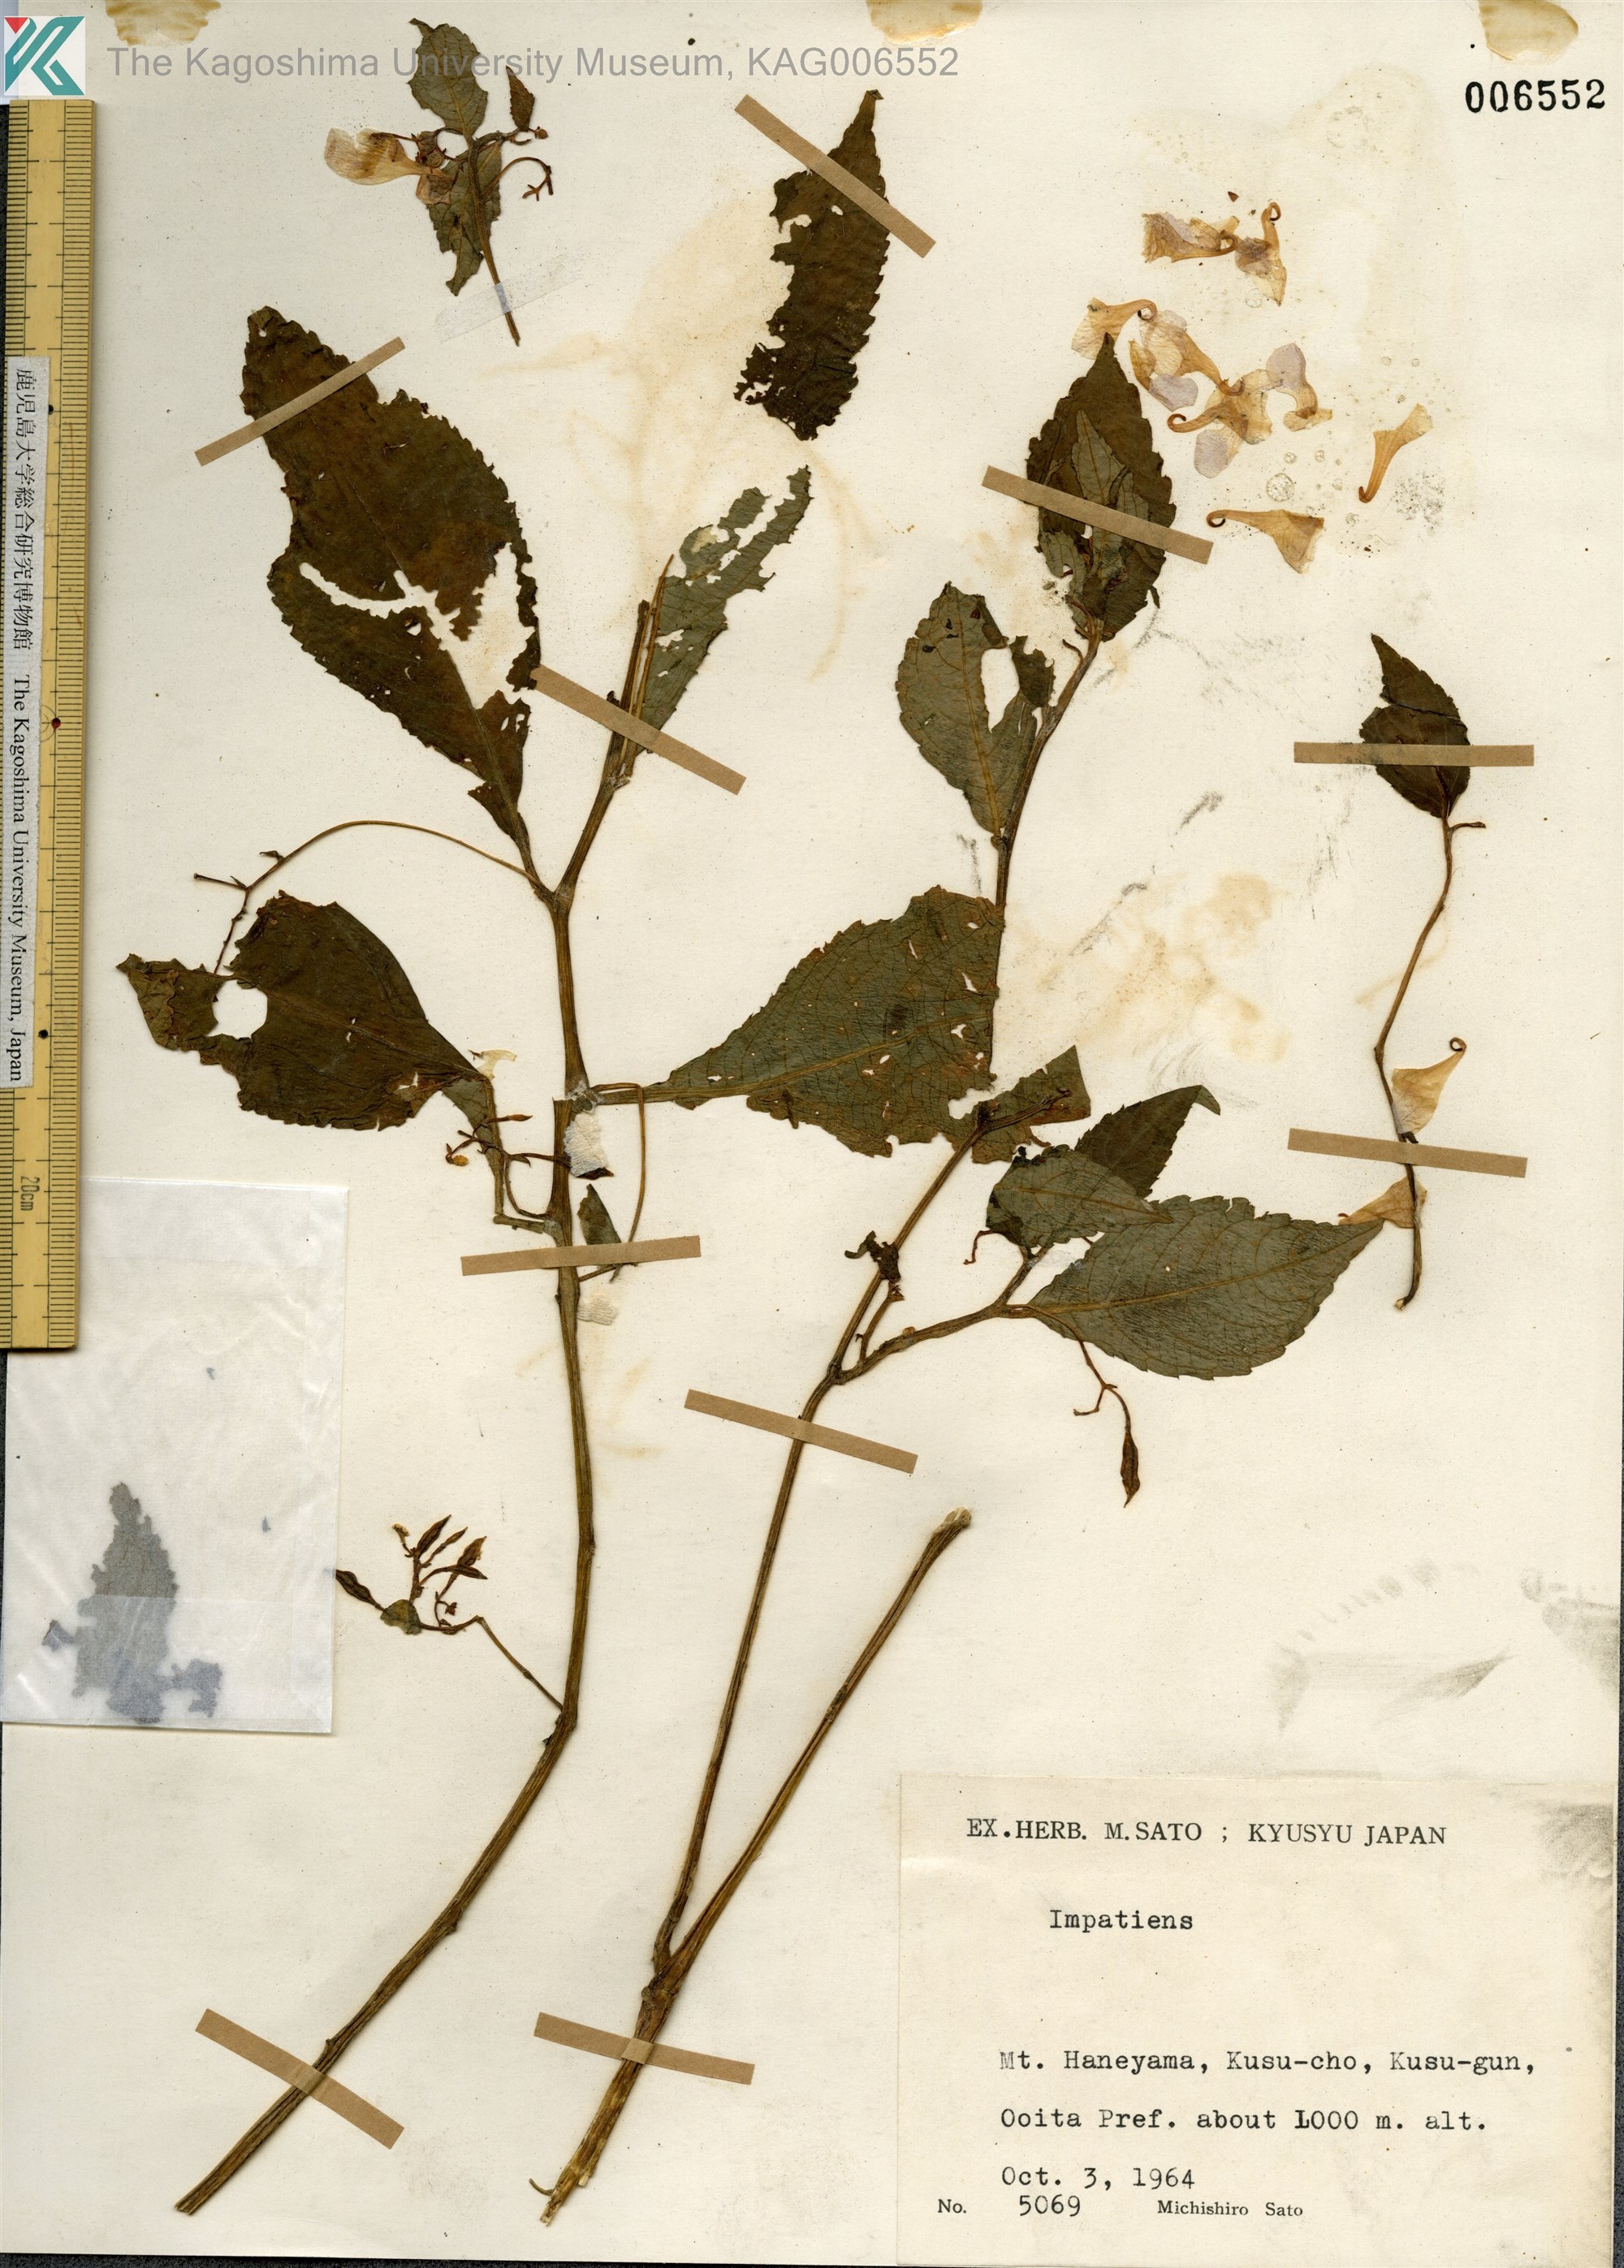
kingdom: Plantae
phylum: Tracheophyta
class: Magnoliopsida
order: Ericales
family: Balsaminaceae
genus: Impatiens
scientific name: Impatiens hypophylla
